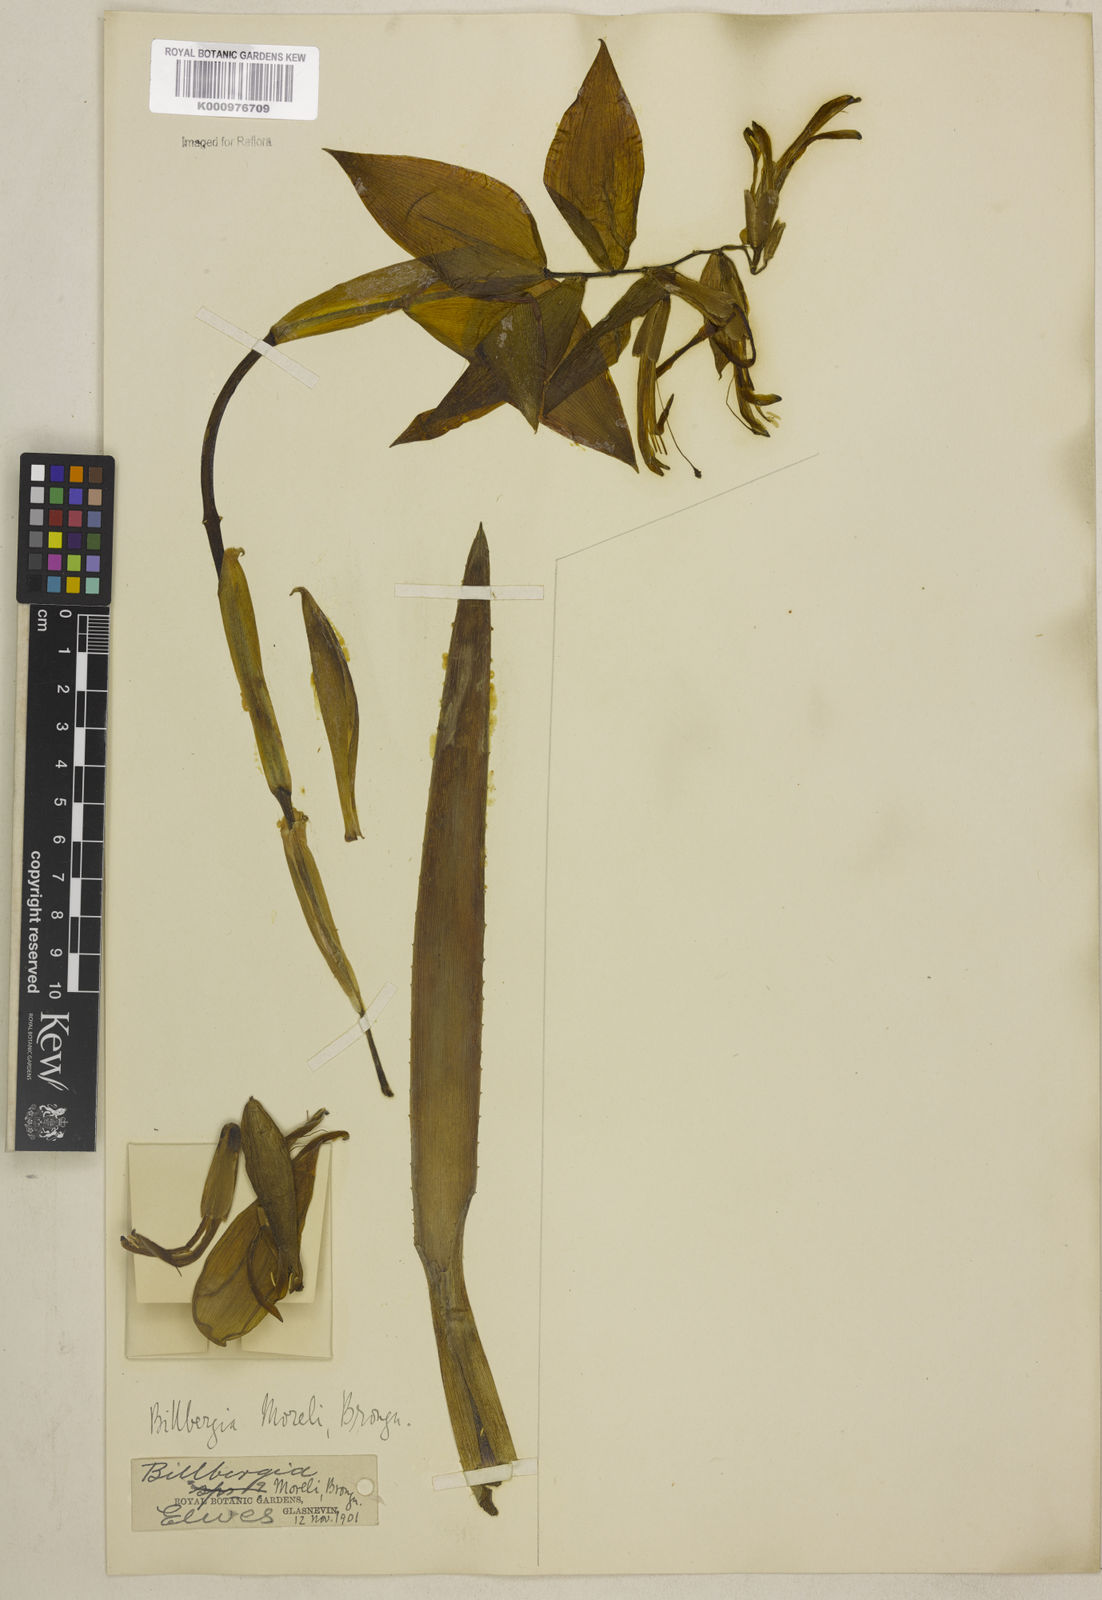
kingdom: Plantae
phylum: Tracheophyta
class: Liliopsida
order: Poales
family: Bromeliaceae
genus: Billbergia
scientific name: Billbergia morelii
